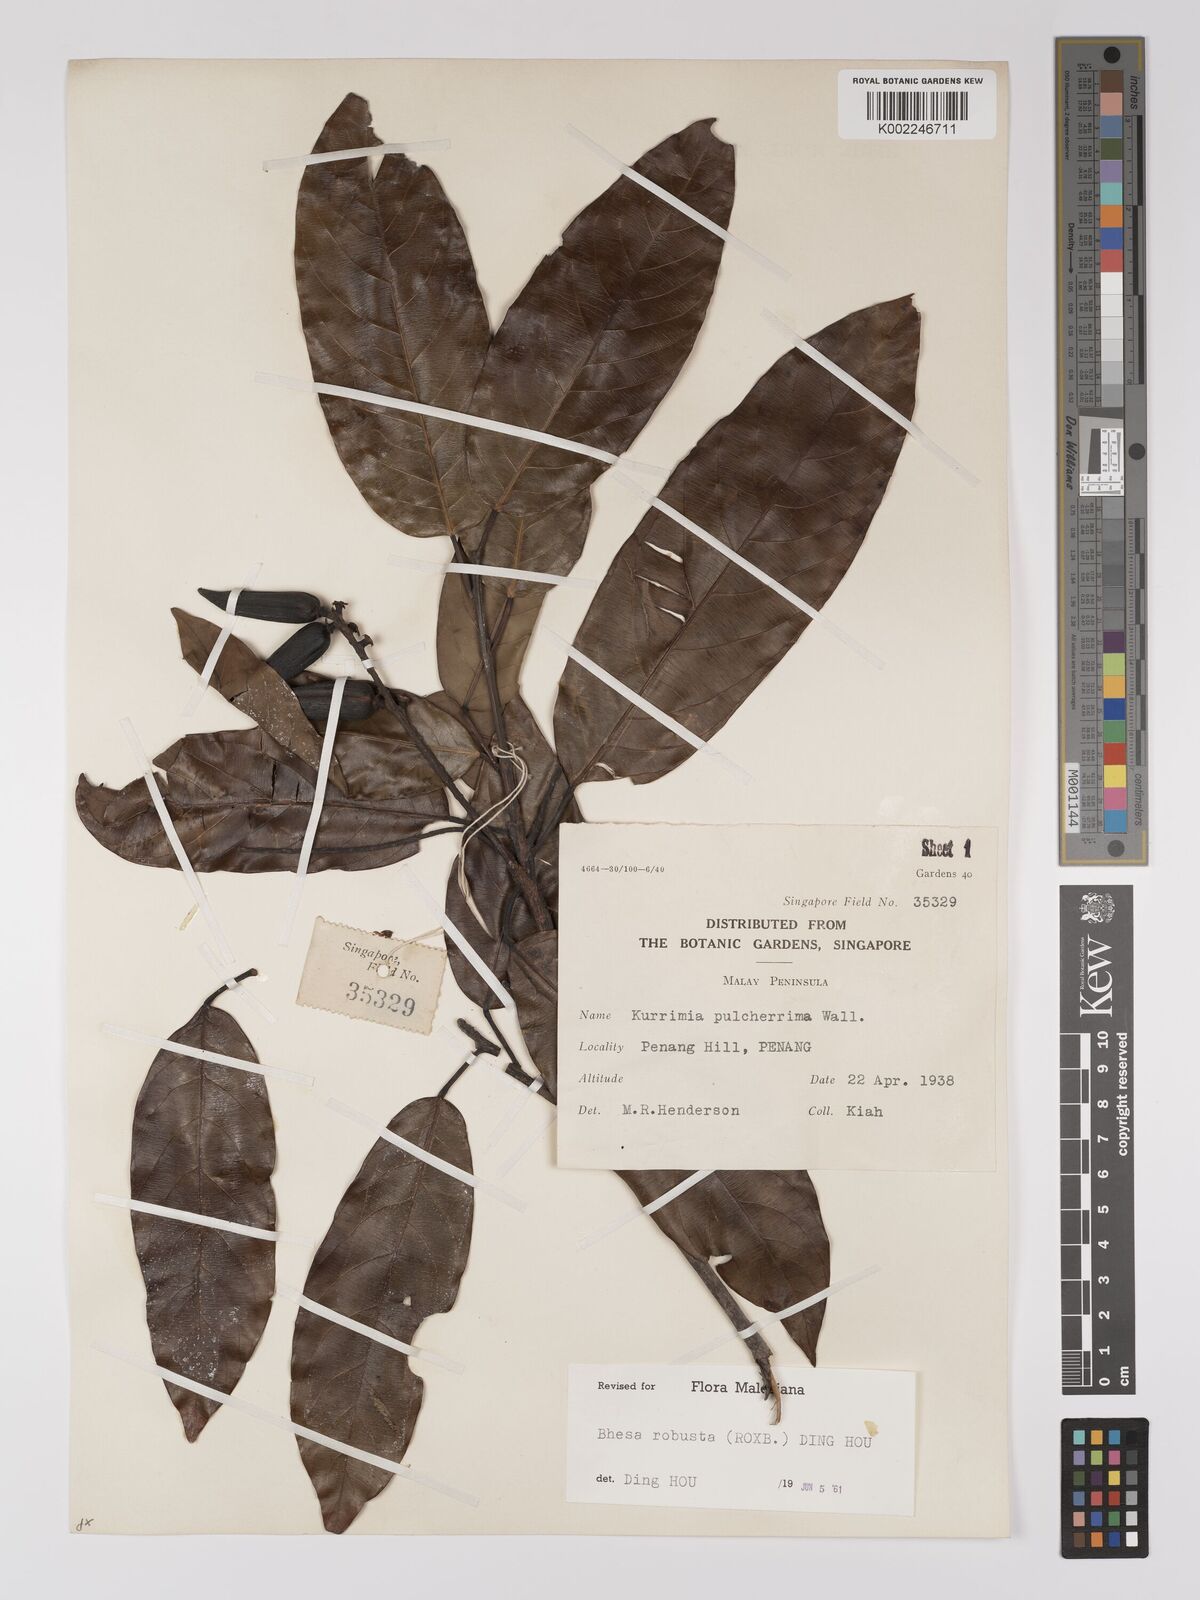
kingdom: Plantae
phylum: Tracheophyta
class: Magnoliopsida
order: Malpighiales
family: Centroplacaceae
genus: Bhesa
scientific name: Bhesa robusta
